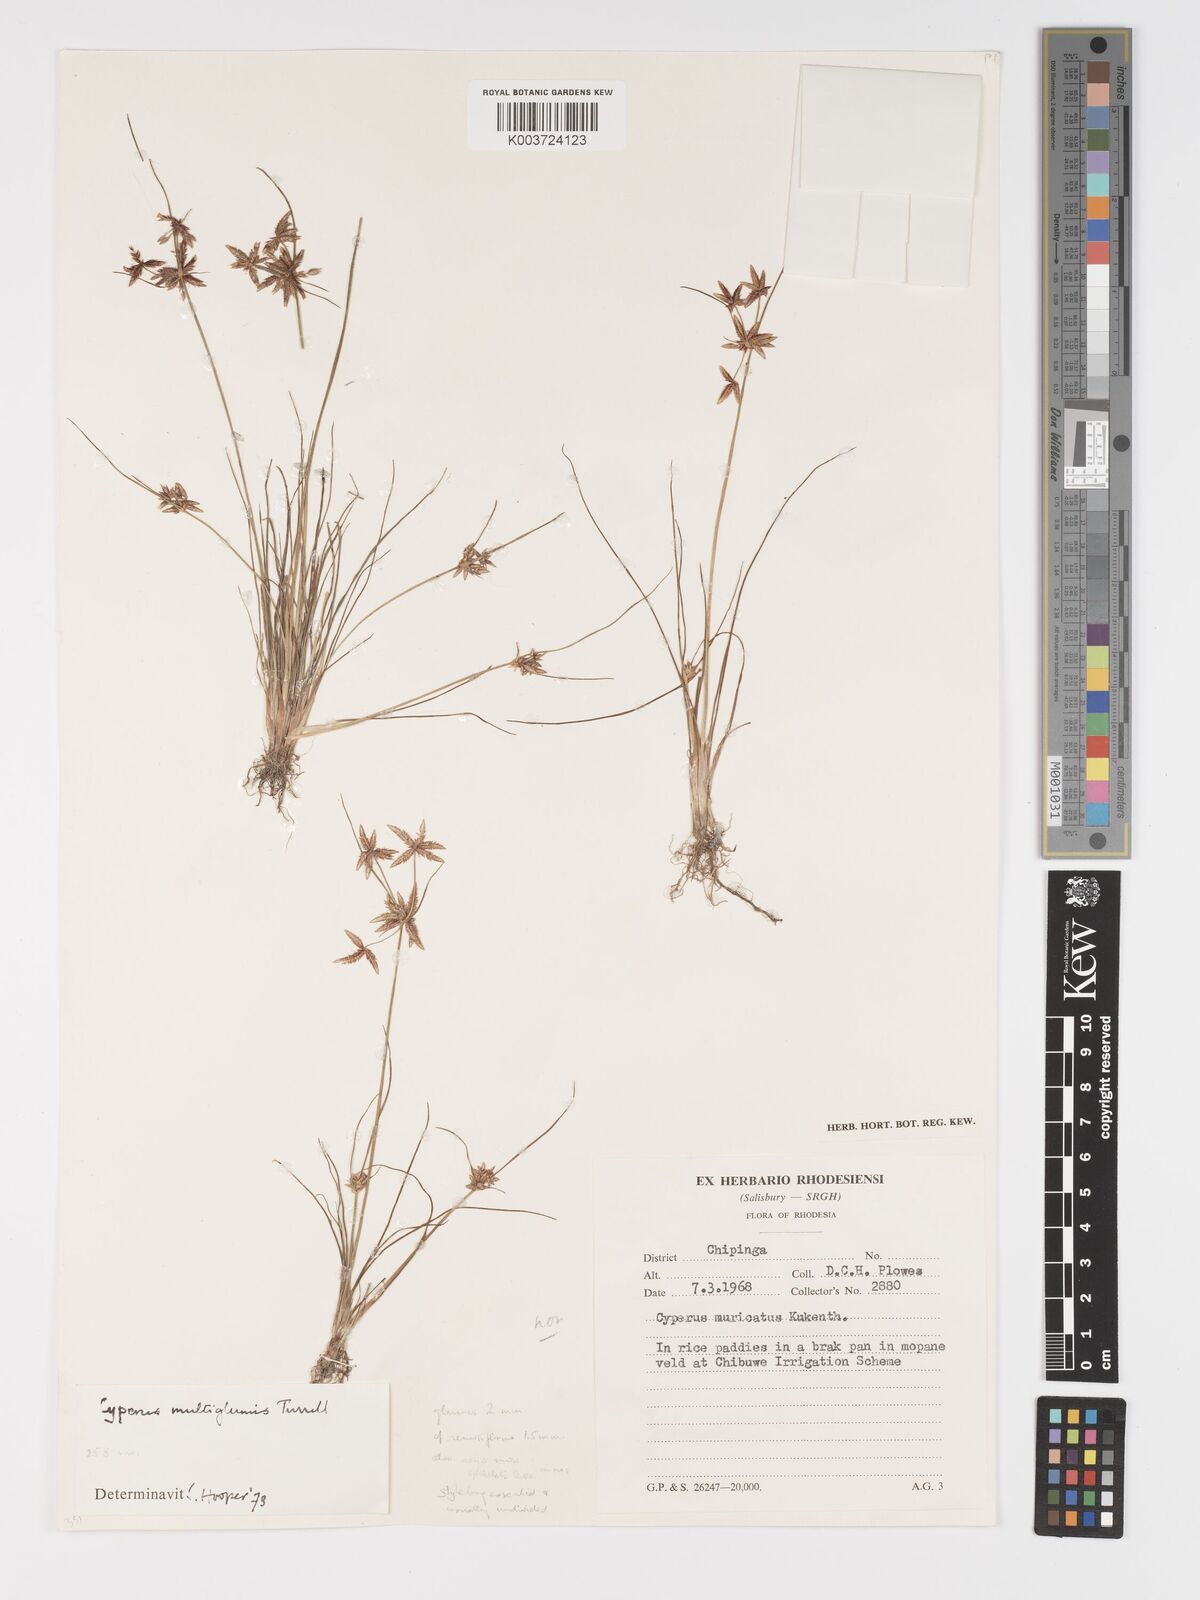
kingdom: Plantae
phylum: Tracheophyta
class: Liliopsida
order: Poales
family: Cyperaceae
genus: Cyperus
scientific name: Cyperus semitrifidus
